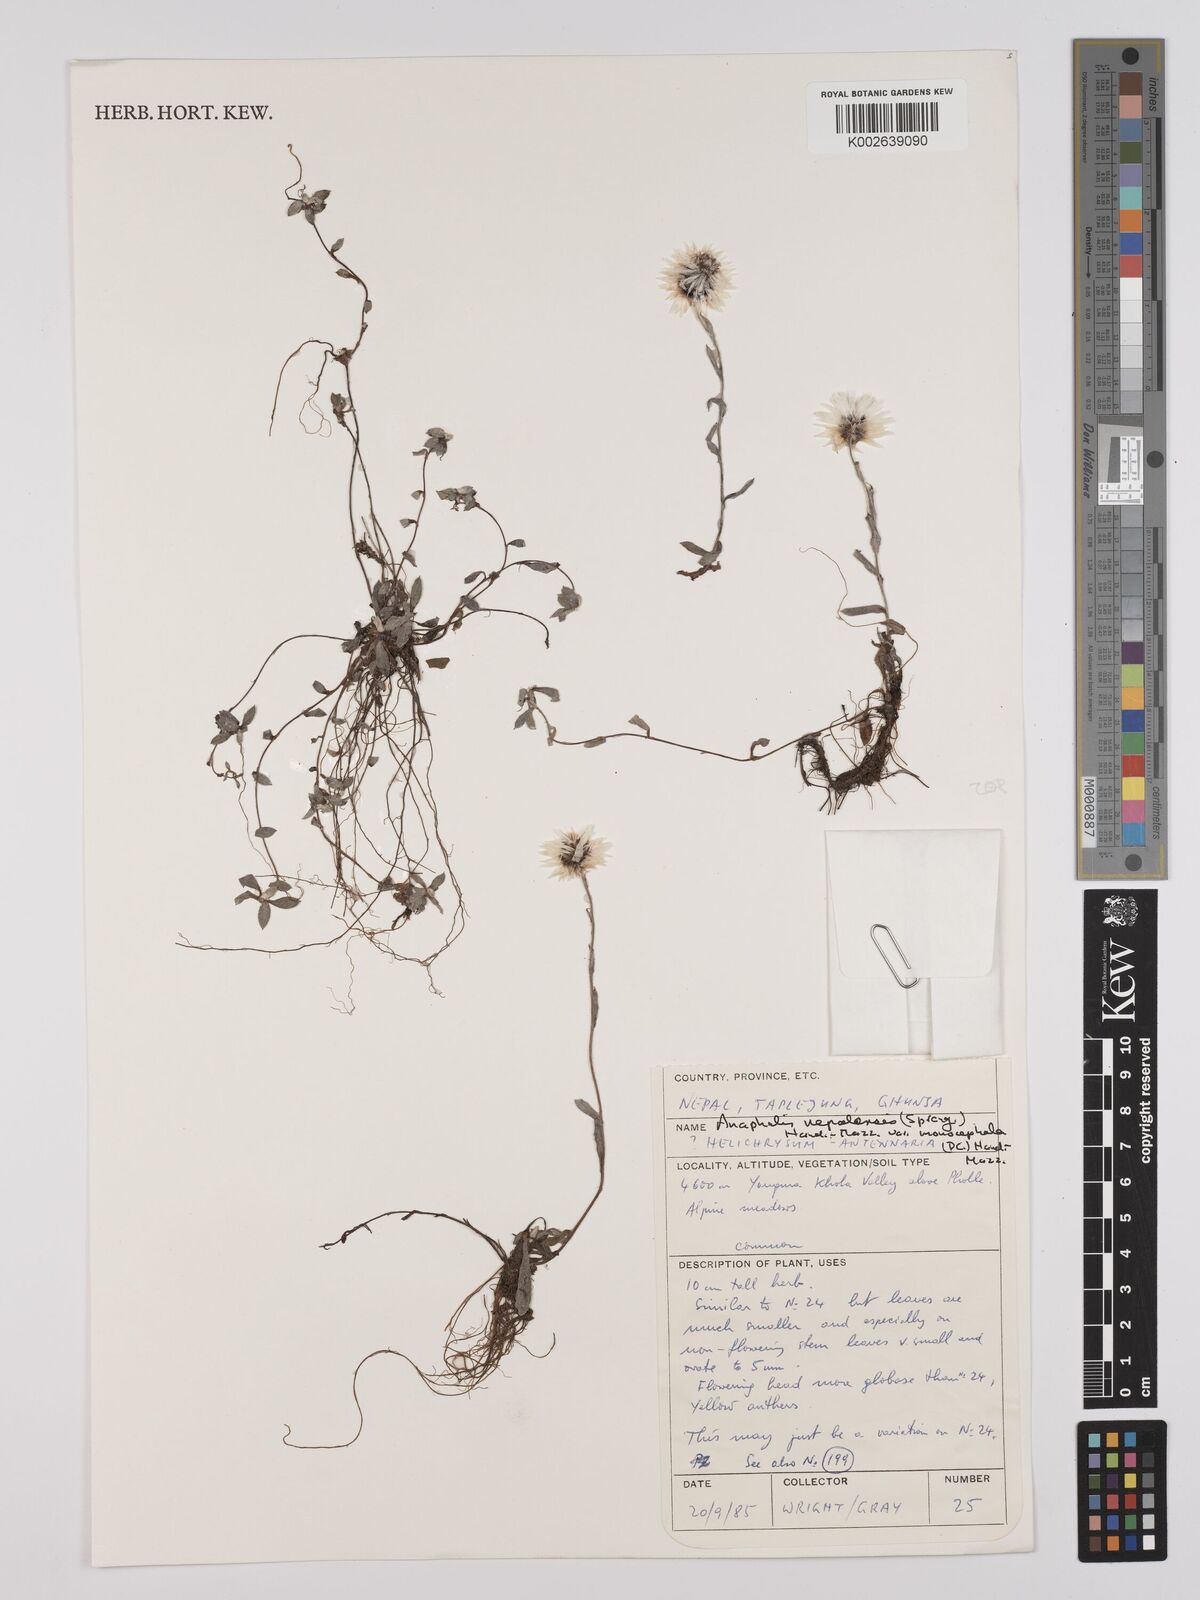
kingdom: Plantae
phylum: Tracheophyta
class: Magnoliopsida
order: Asterales
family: Asteraceae
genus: Anaphalis
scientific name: Anaphalis nepalensis
